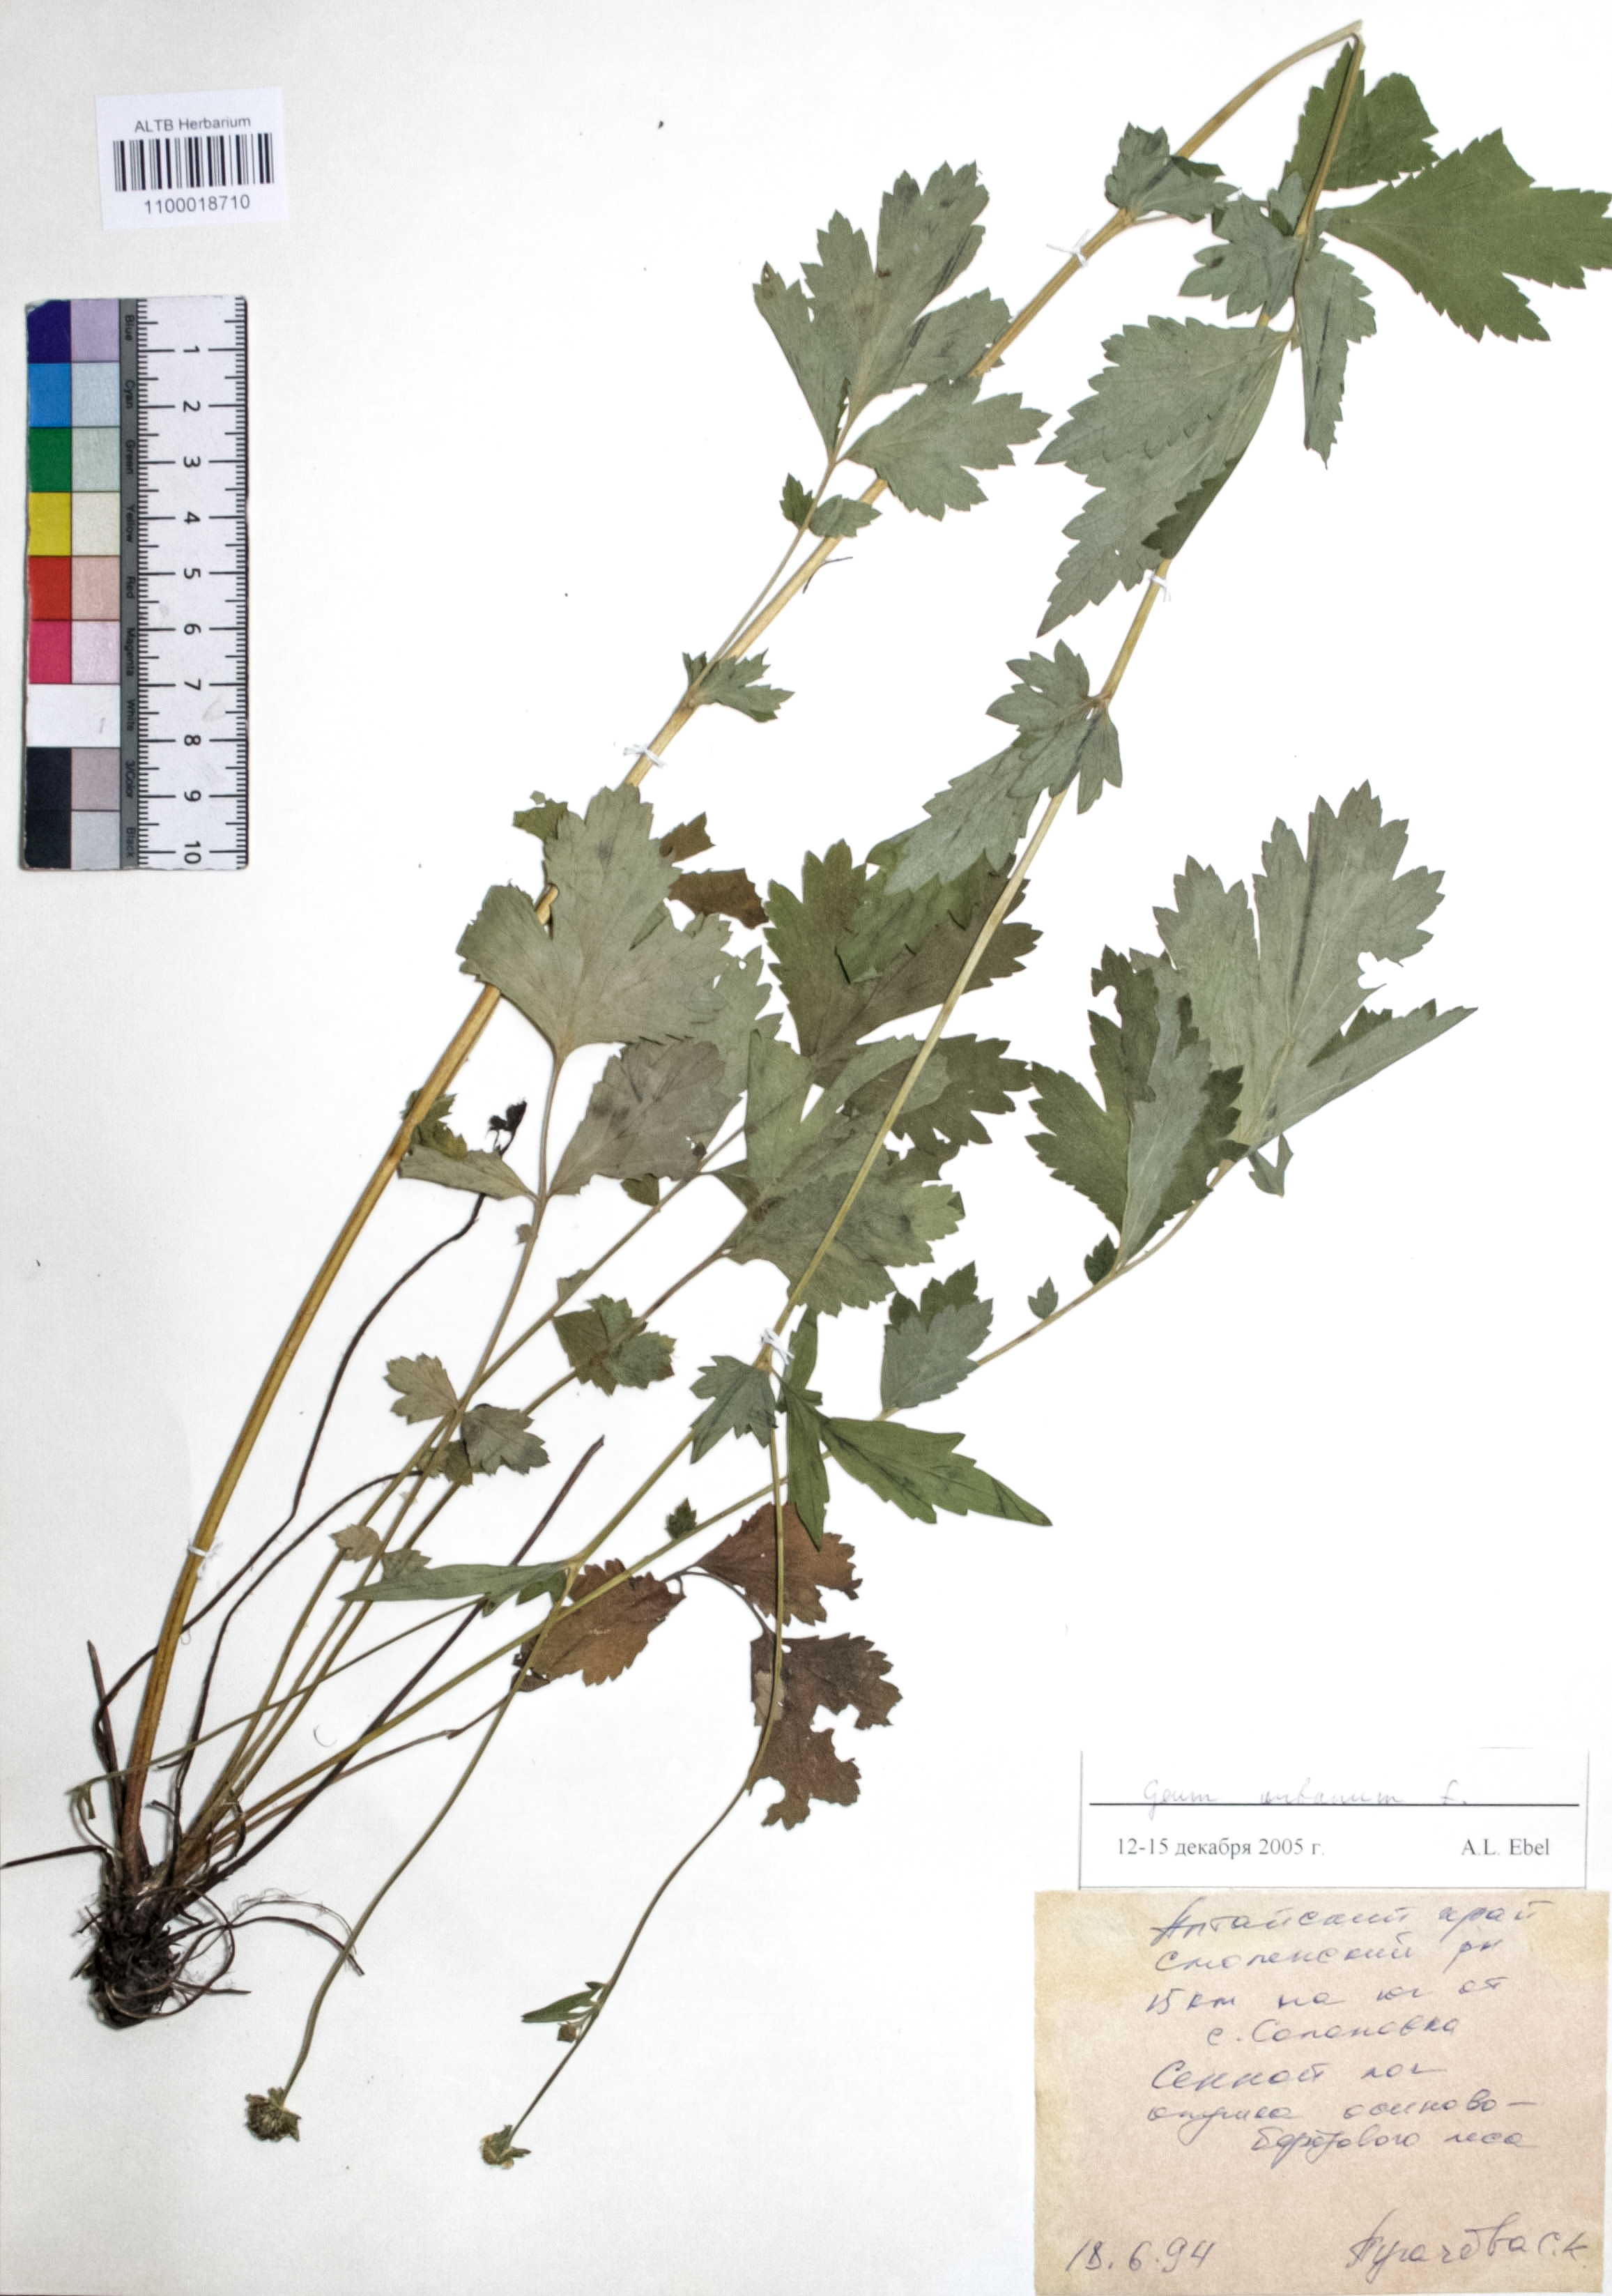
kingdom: Plantae
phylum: Tracheophyta
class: Magnoliopsida
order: Rosales
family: Rosaceae
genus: Geum
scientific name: Geum urbanum
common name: Wood avens
